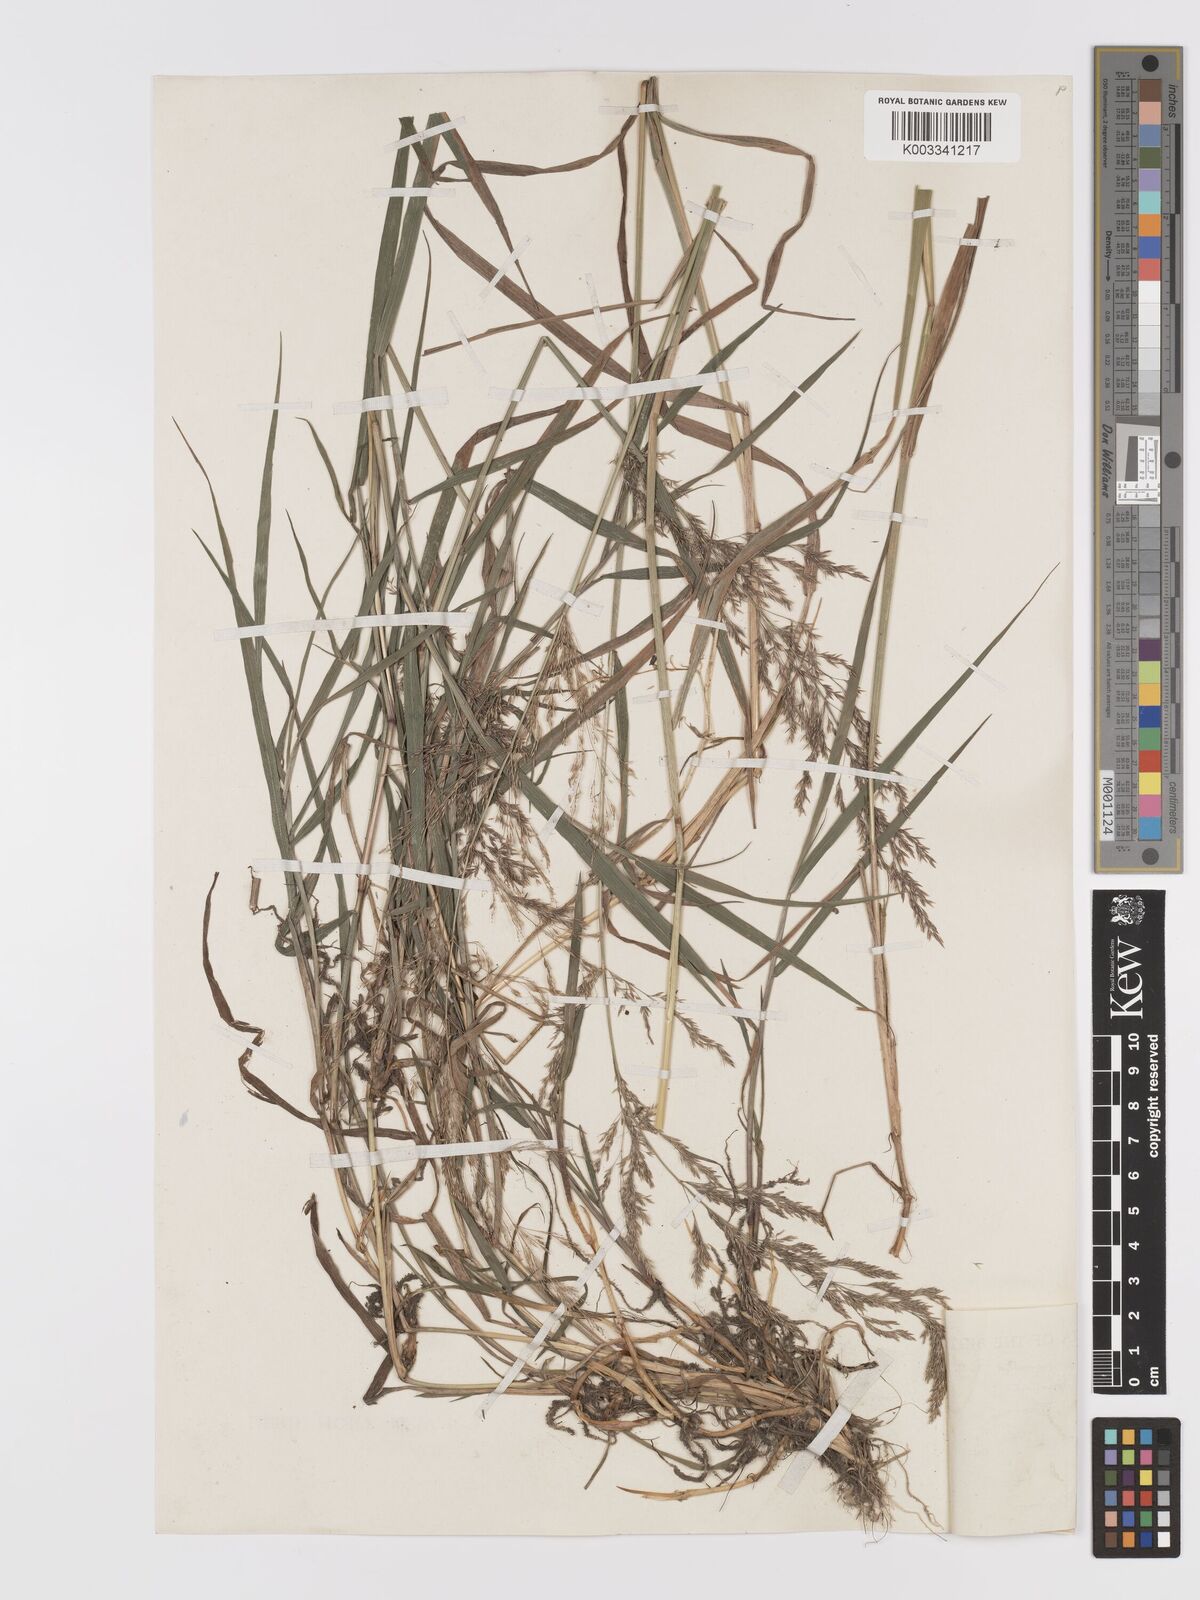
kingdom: Plantae
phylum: Tracheophyta
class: Liliopsida
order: Poales
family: Poaceae
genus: Agrostis
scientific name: Agrostis gigantea
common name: Black bent
